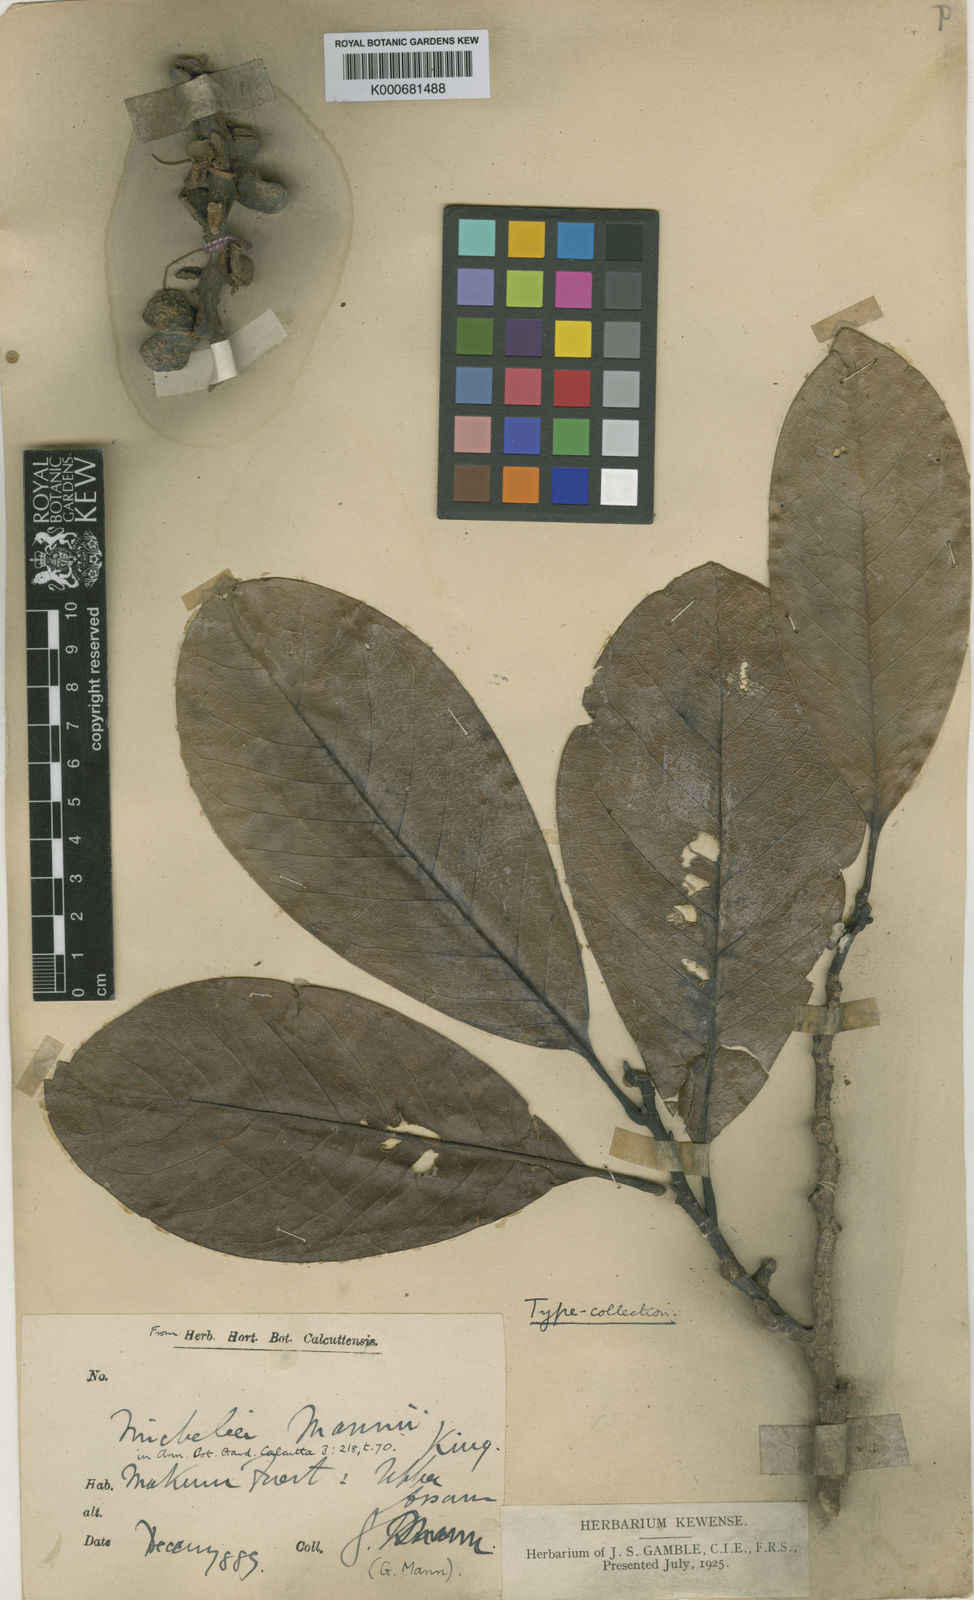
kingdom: Plantae
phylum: Tracheophyta
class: Magnoliopsida
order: Magnoliales
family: Magnoliaceae
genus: Magnolia
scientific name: Magnolia mannii
